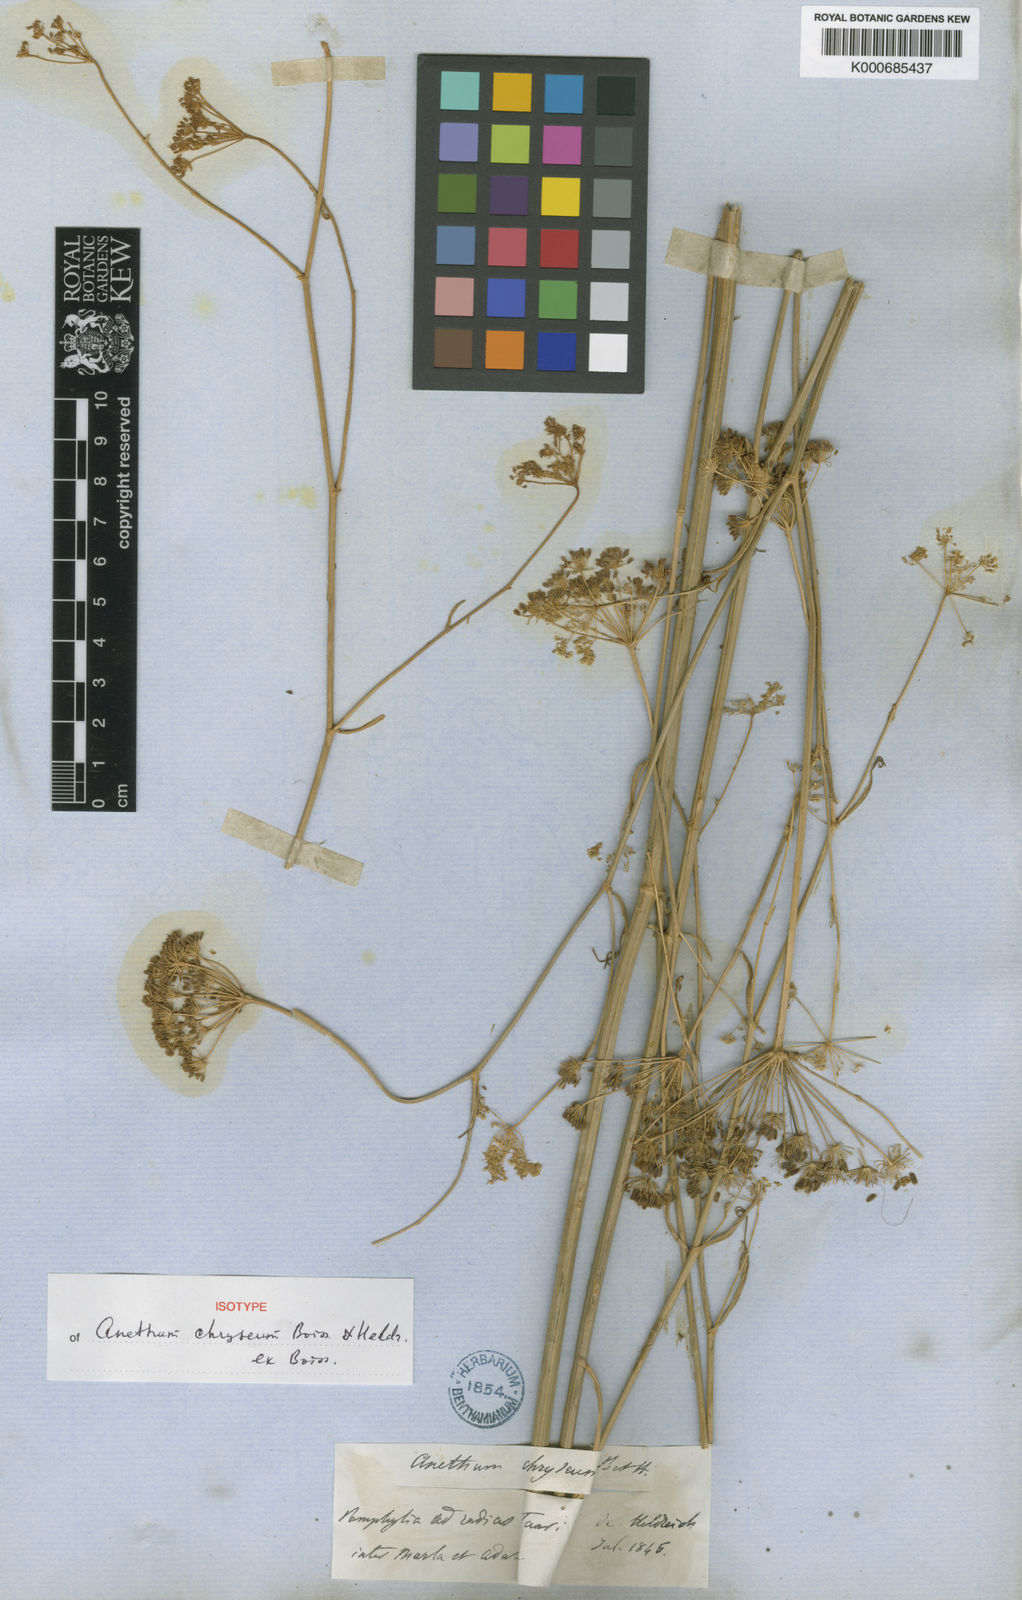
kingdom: Plantae
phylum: Tracheophyta
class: Magnoliopsida
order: Apiales
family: Apiaceae
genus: Dichoropetalum
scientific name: Dichoropetalum chryseum
